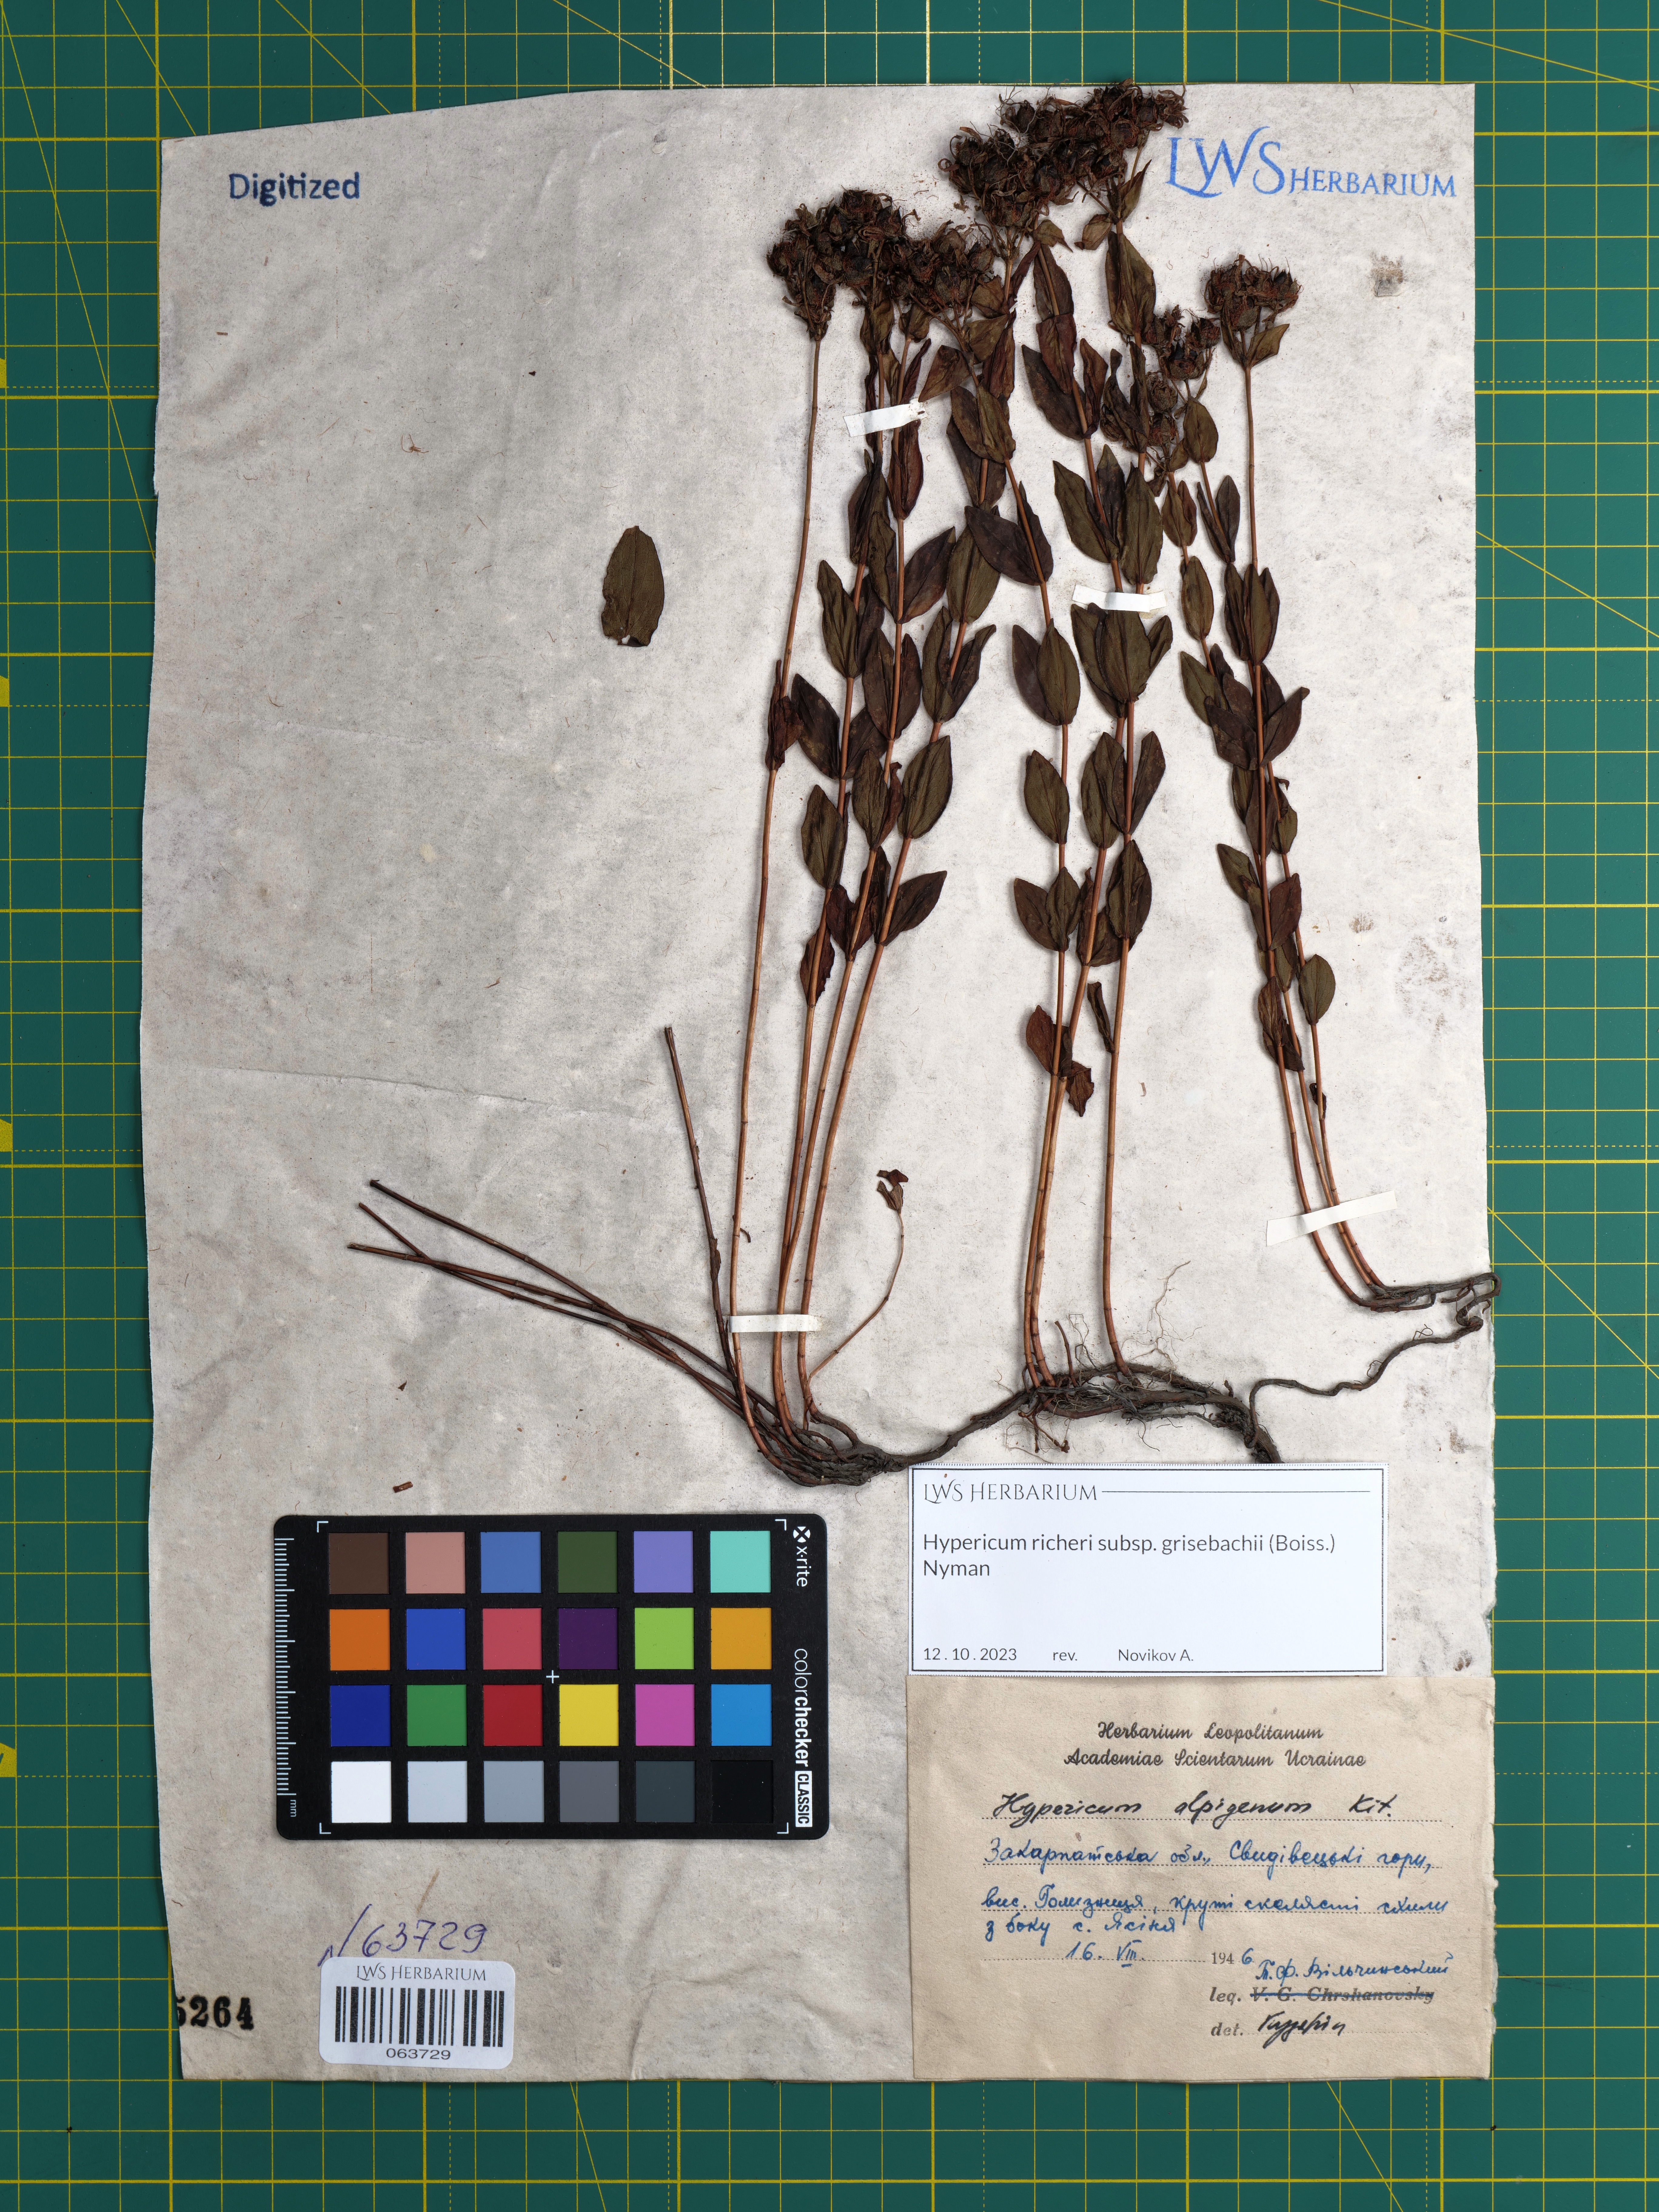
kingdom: Plantae
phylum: Tracheophyta
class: Magnoliopsida
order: Malpighiales
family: Hypericaceae
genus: Hypericum
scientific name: Hypericum richeri
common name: Alpine st john's-wort
